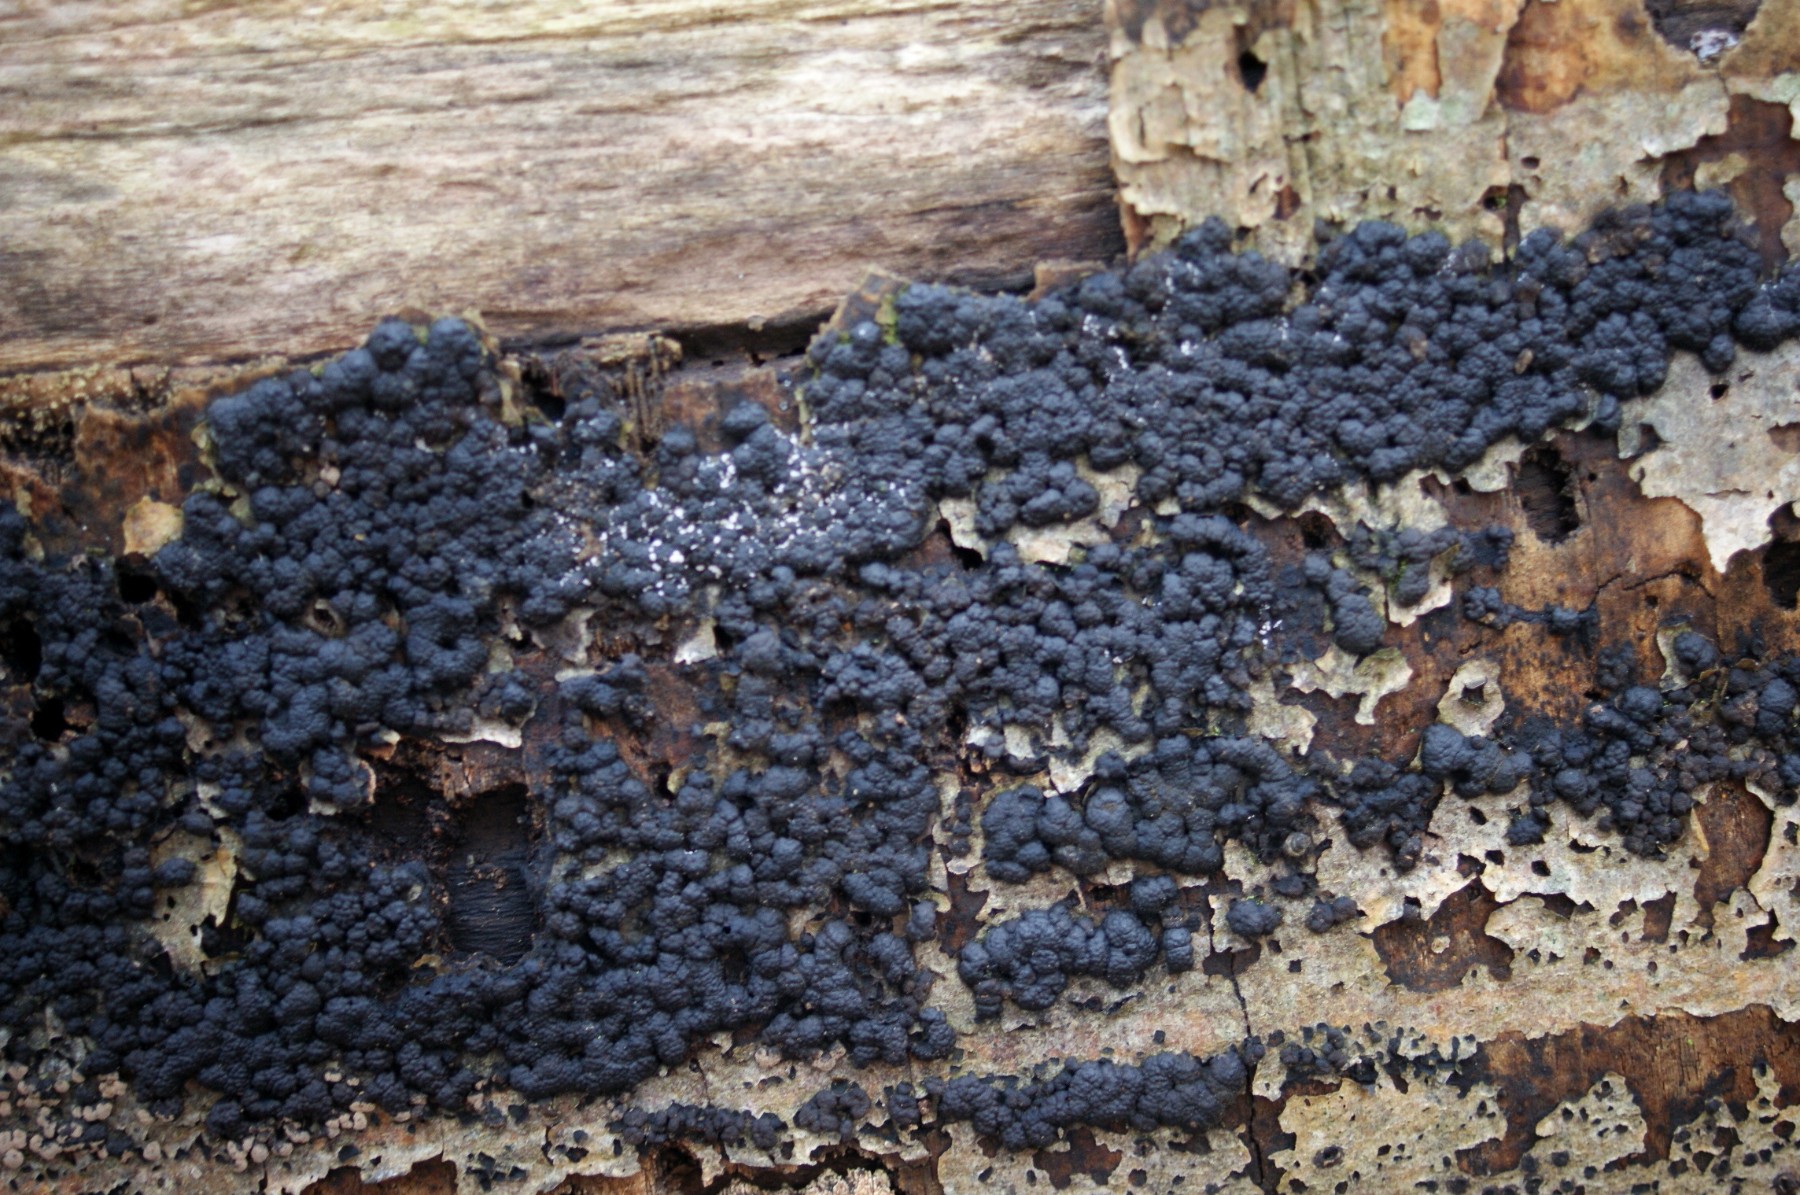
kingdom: Fungi
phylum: Ascomycota
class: Sordariomycetes
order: Xylariales
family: Hypoxylaceae
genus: Jackrogersella
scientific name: Jackrogersella cohaerens
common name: sammenflydende kulbær
